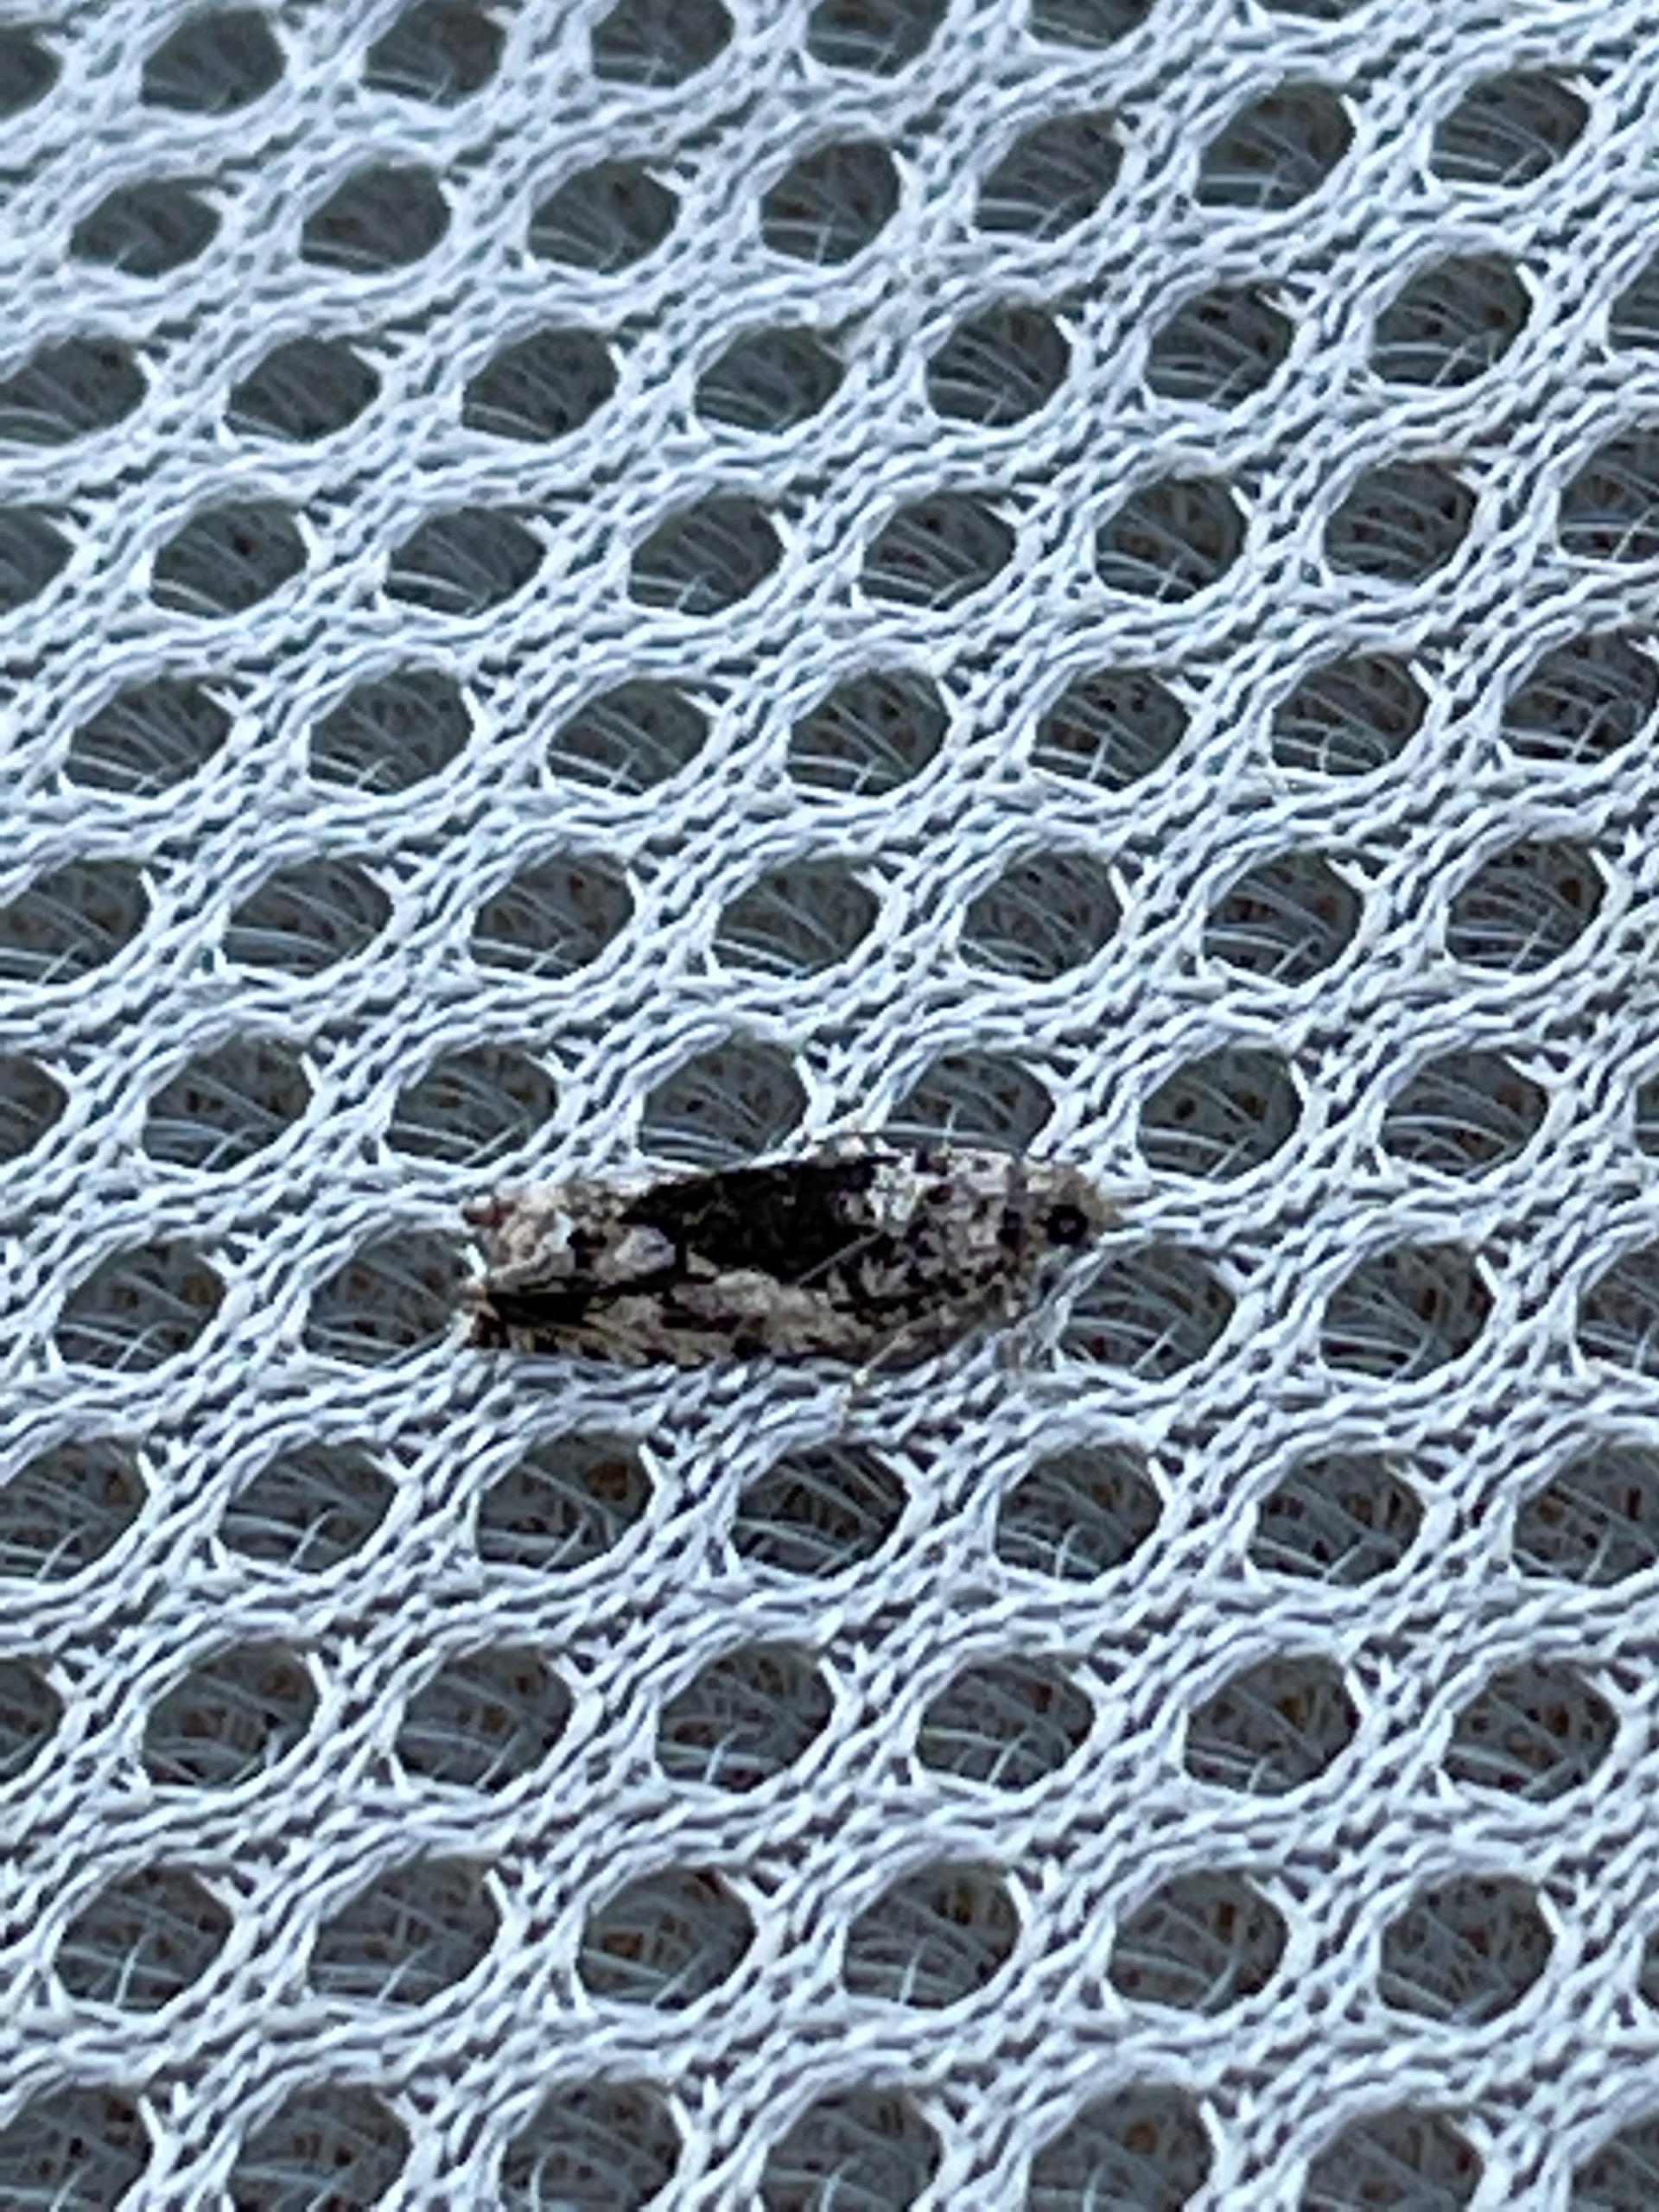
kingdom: Animalia
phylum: Arthropoda
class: Insecta
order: Lepidoptera
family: Tortricidae
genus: Epinotia
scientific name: Epinotia nisella
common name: Pilerullevikler
